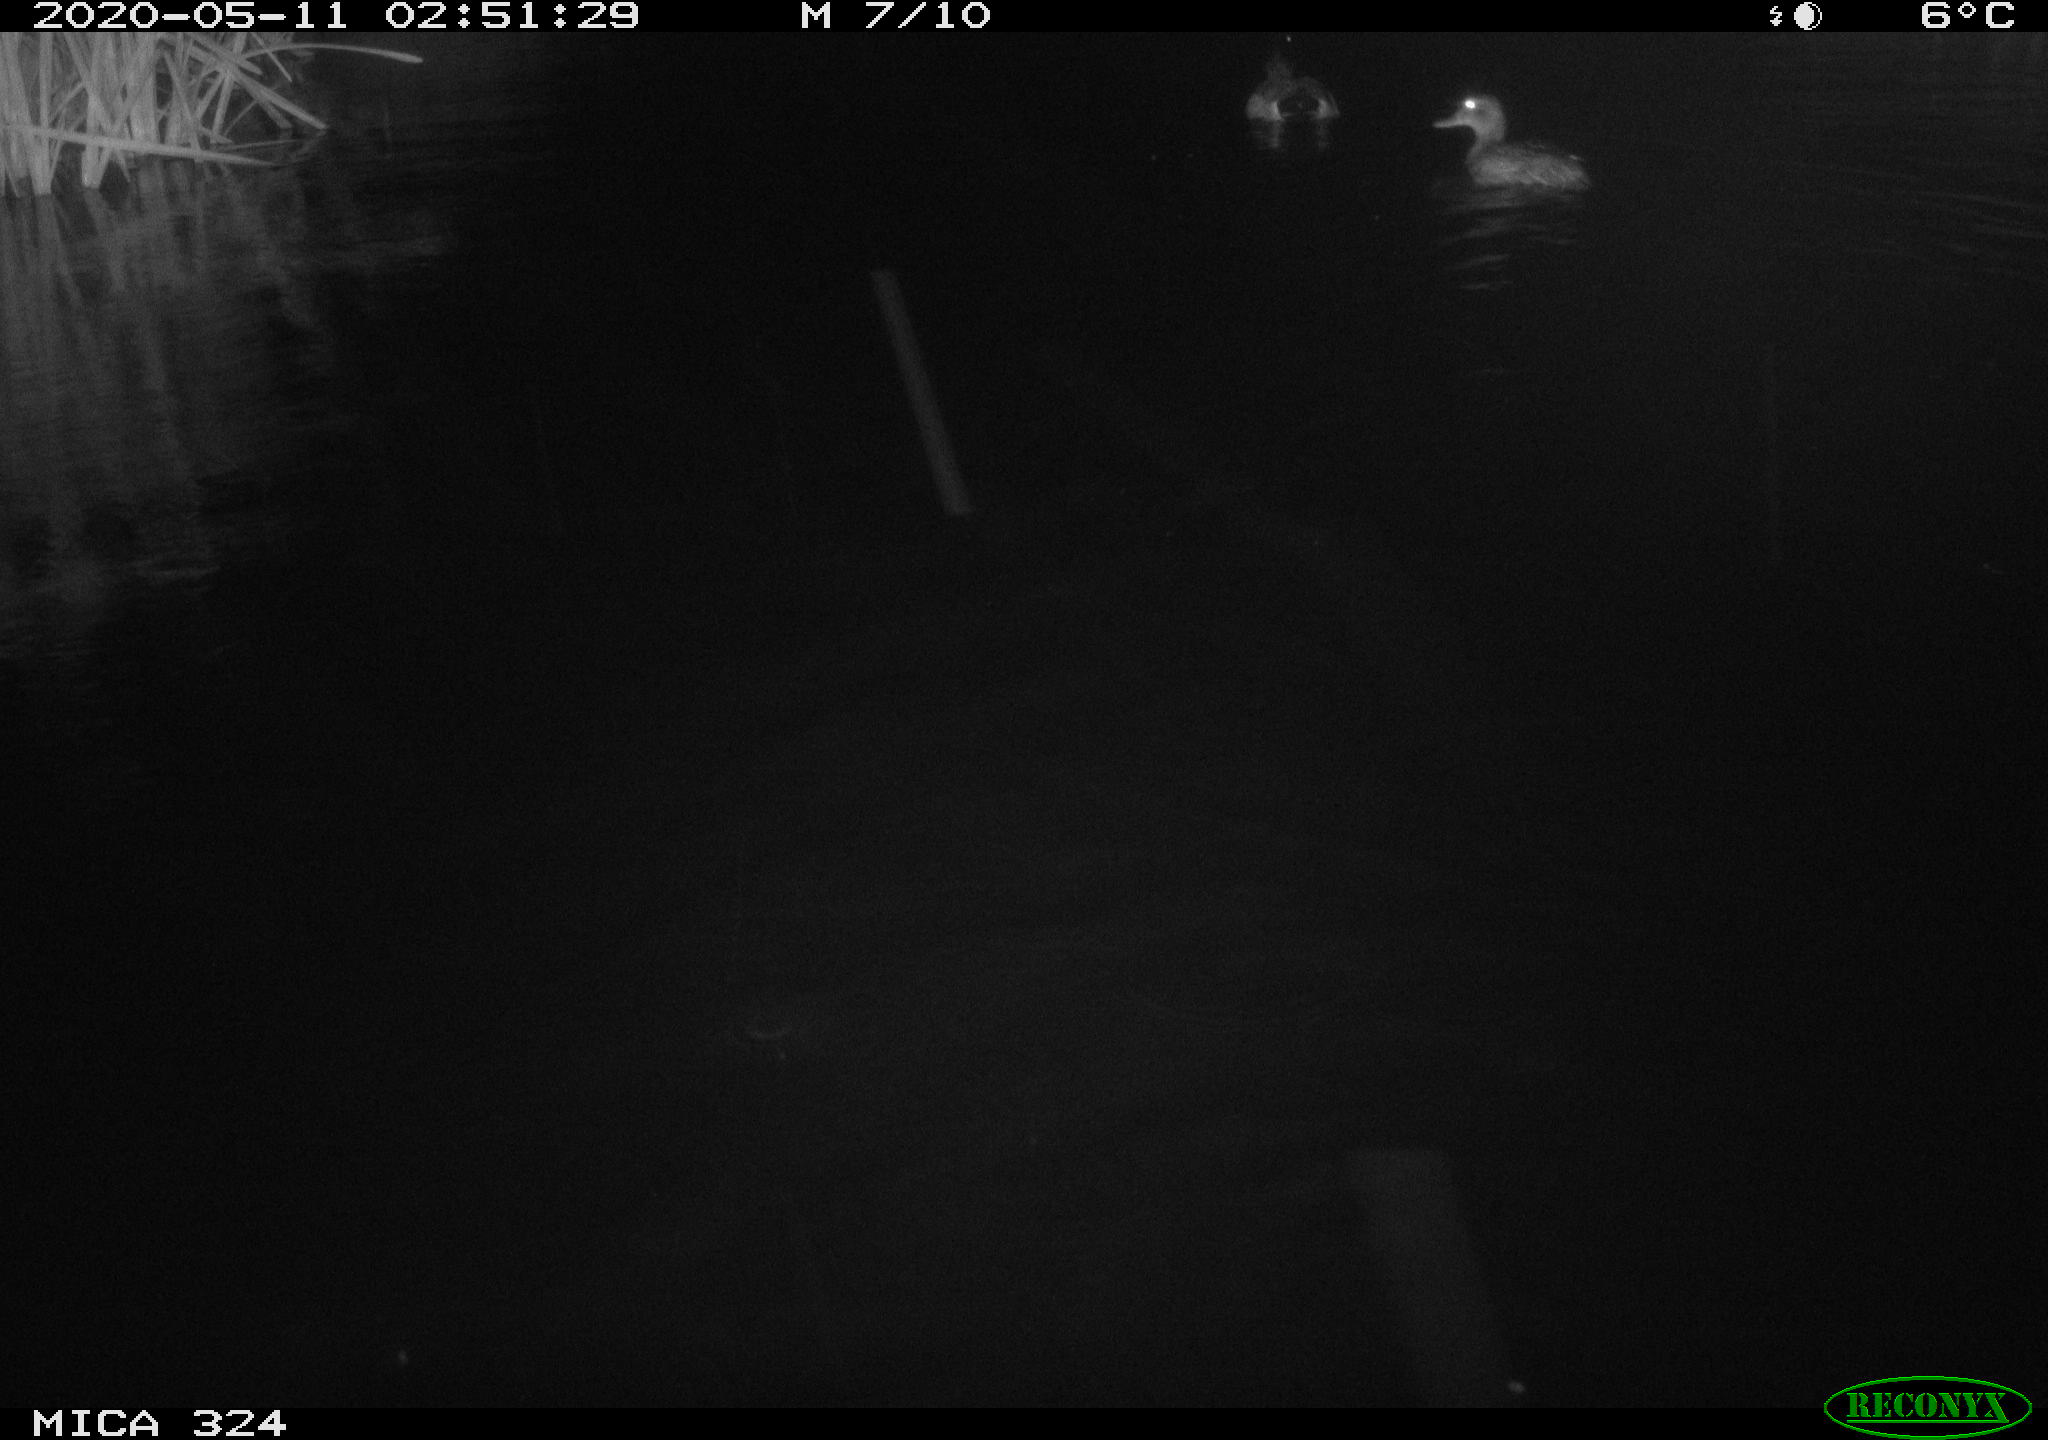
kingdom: Animalia
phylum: Chordata
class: Aves
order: Anseriformes
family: Anatidae
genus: Anas
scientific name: Anas platyrhynchos
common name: Mallard
